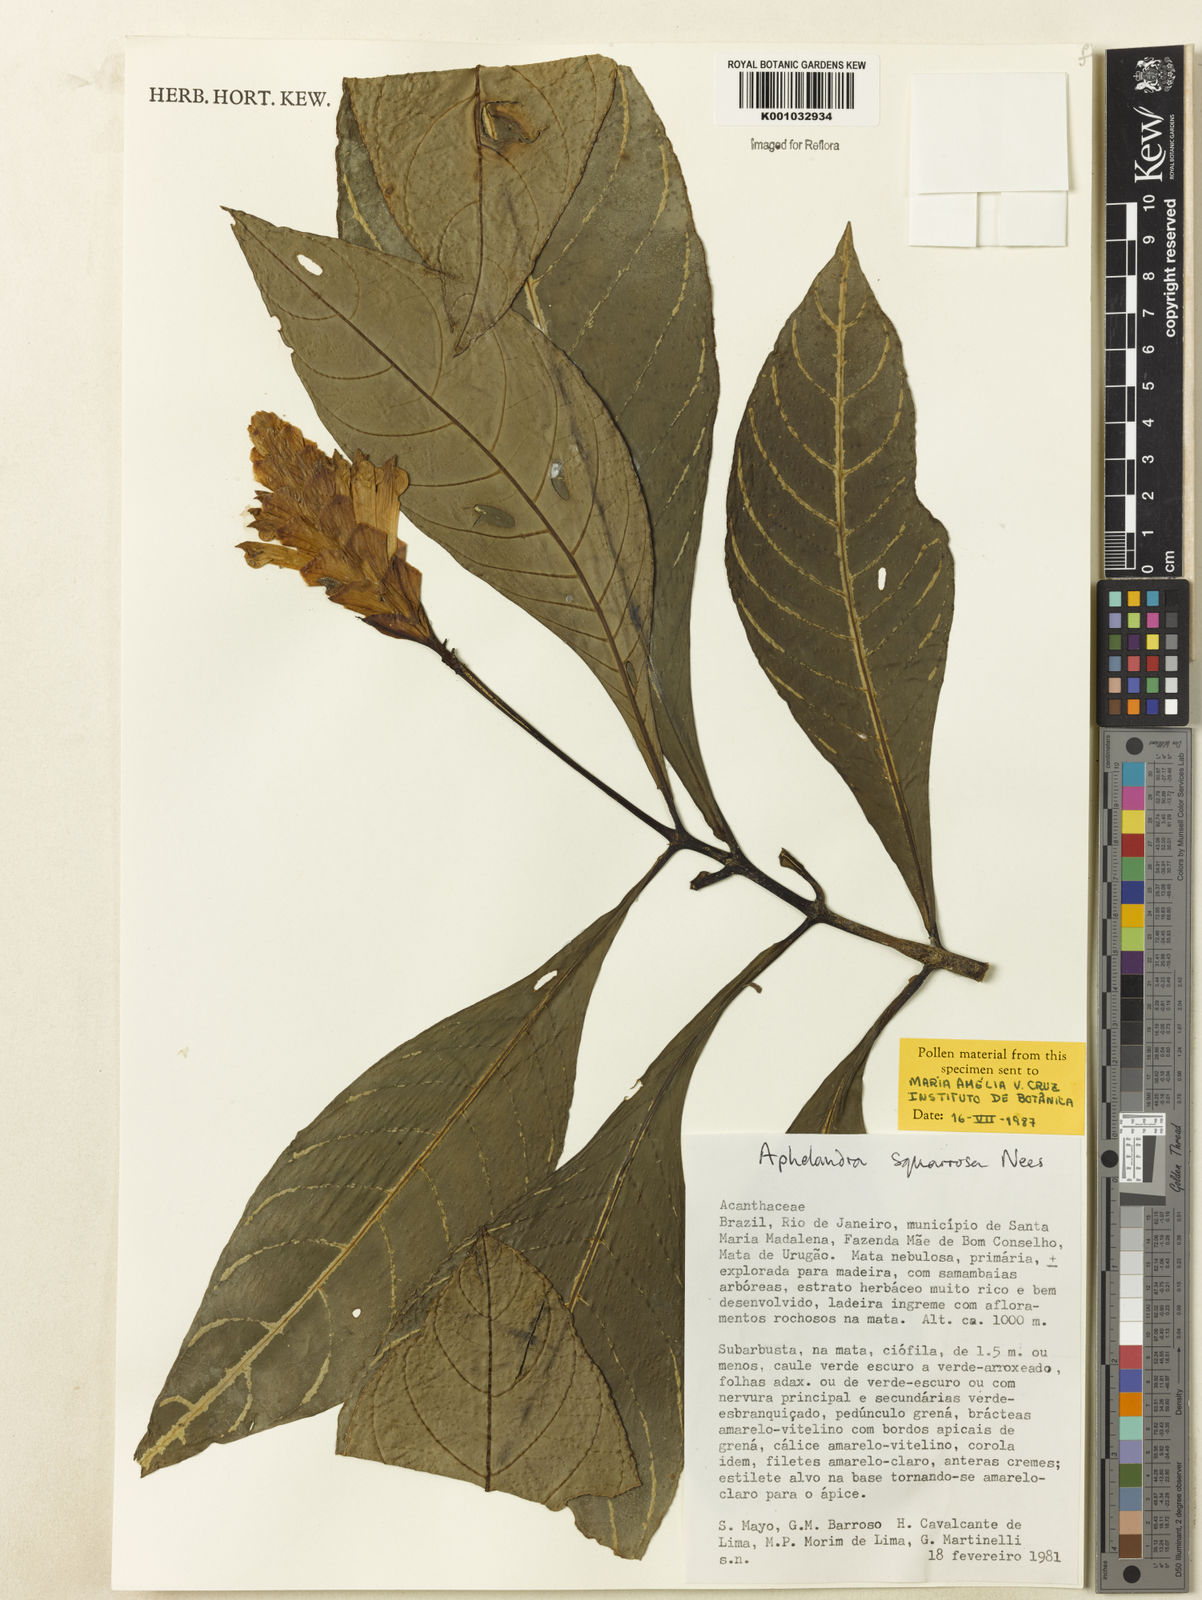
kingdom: Plantae
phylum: Tracheophyta
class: Magnoliopsida
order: Lamiales
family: Acanthaceae
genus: Aphelandra
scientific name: Aphelandra squarrosa
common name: Saffron spike
